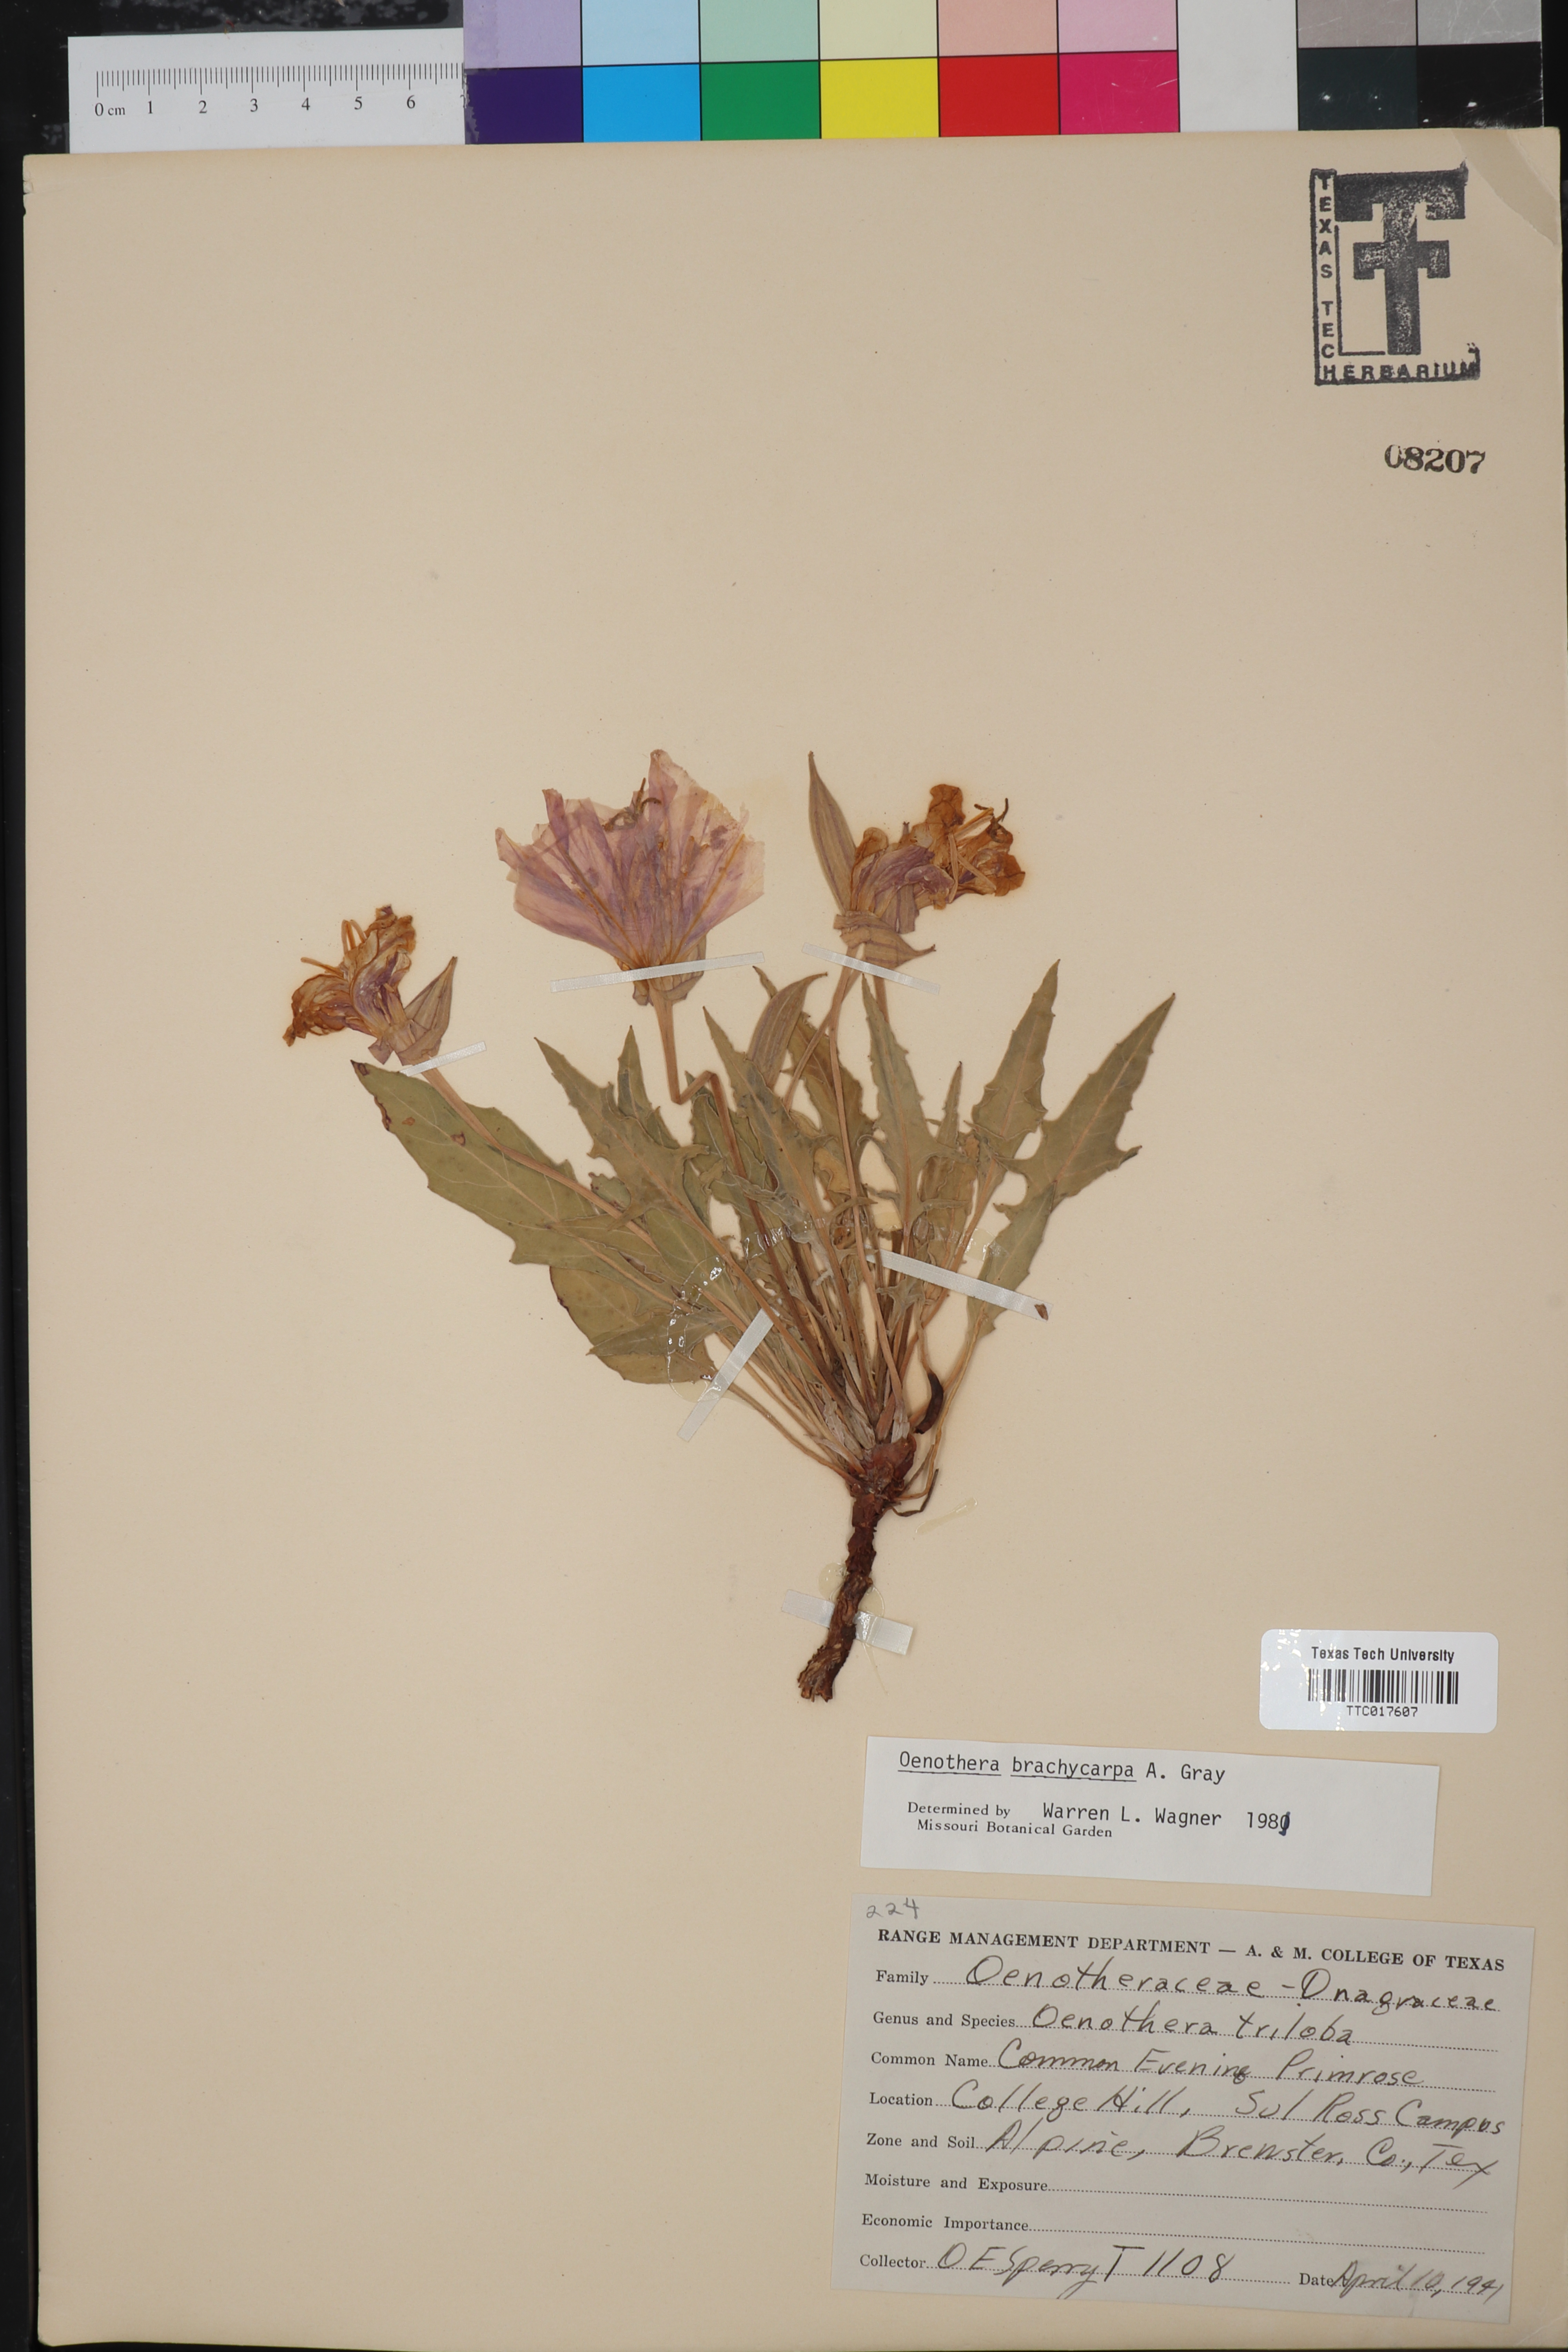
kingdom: Plantae
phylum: Tracheophyta
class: Magnoliopsida
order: Myrtales
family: Onagraceae
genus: Oenothera
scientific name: Oenothera brachycarpa
